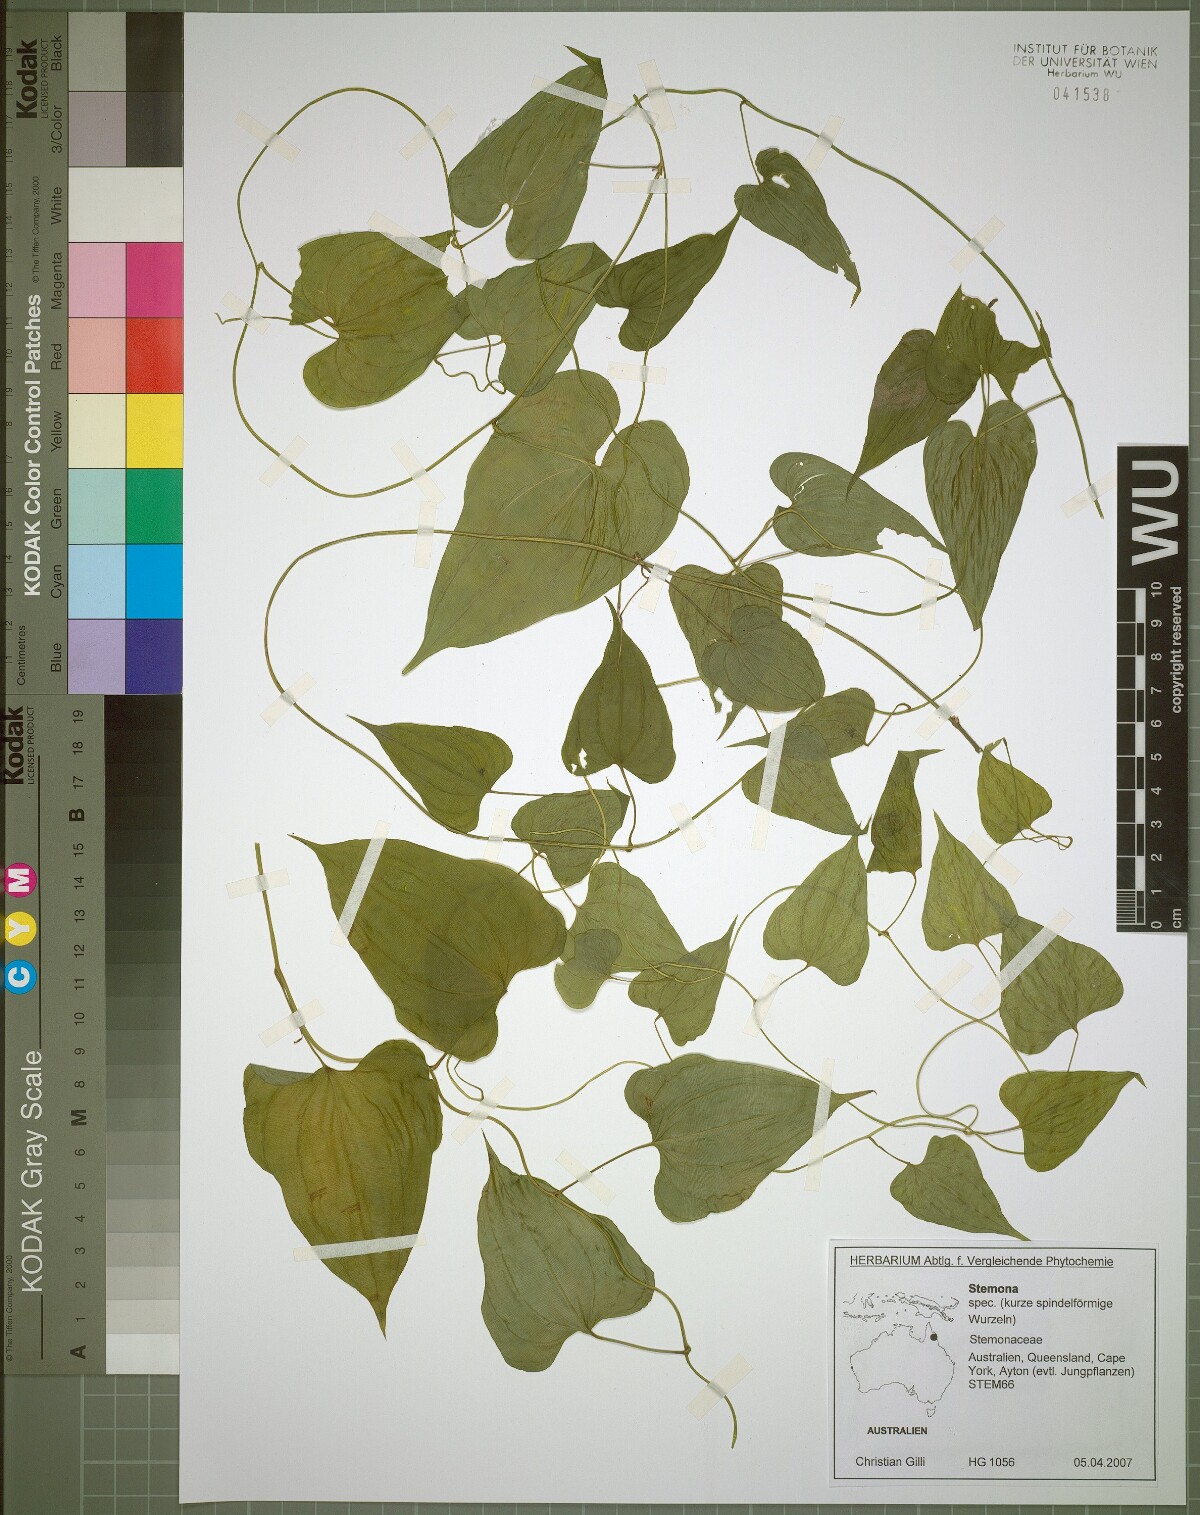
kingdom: Plantae
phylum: Tracheophyta
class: Liliopsida
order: Pandanales
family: Stemonaceae
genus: Stemona
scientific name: Stemona lucida
